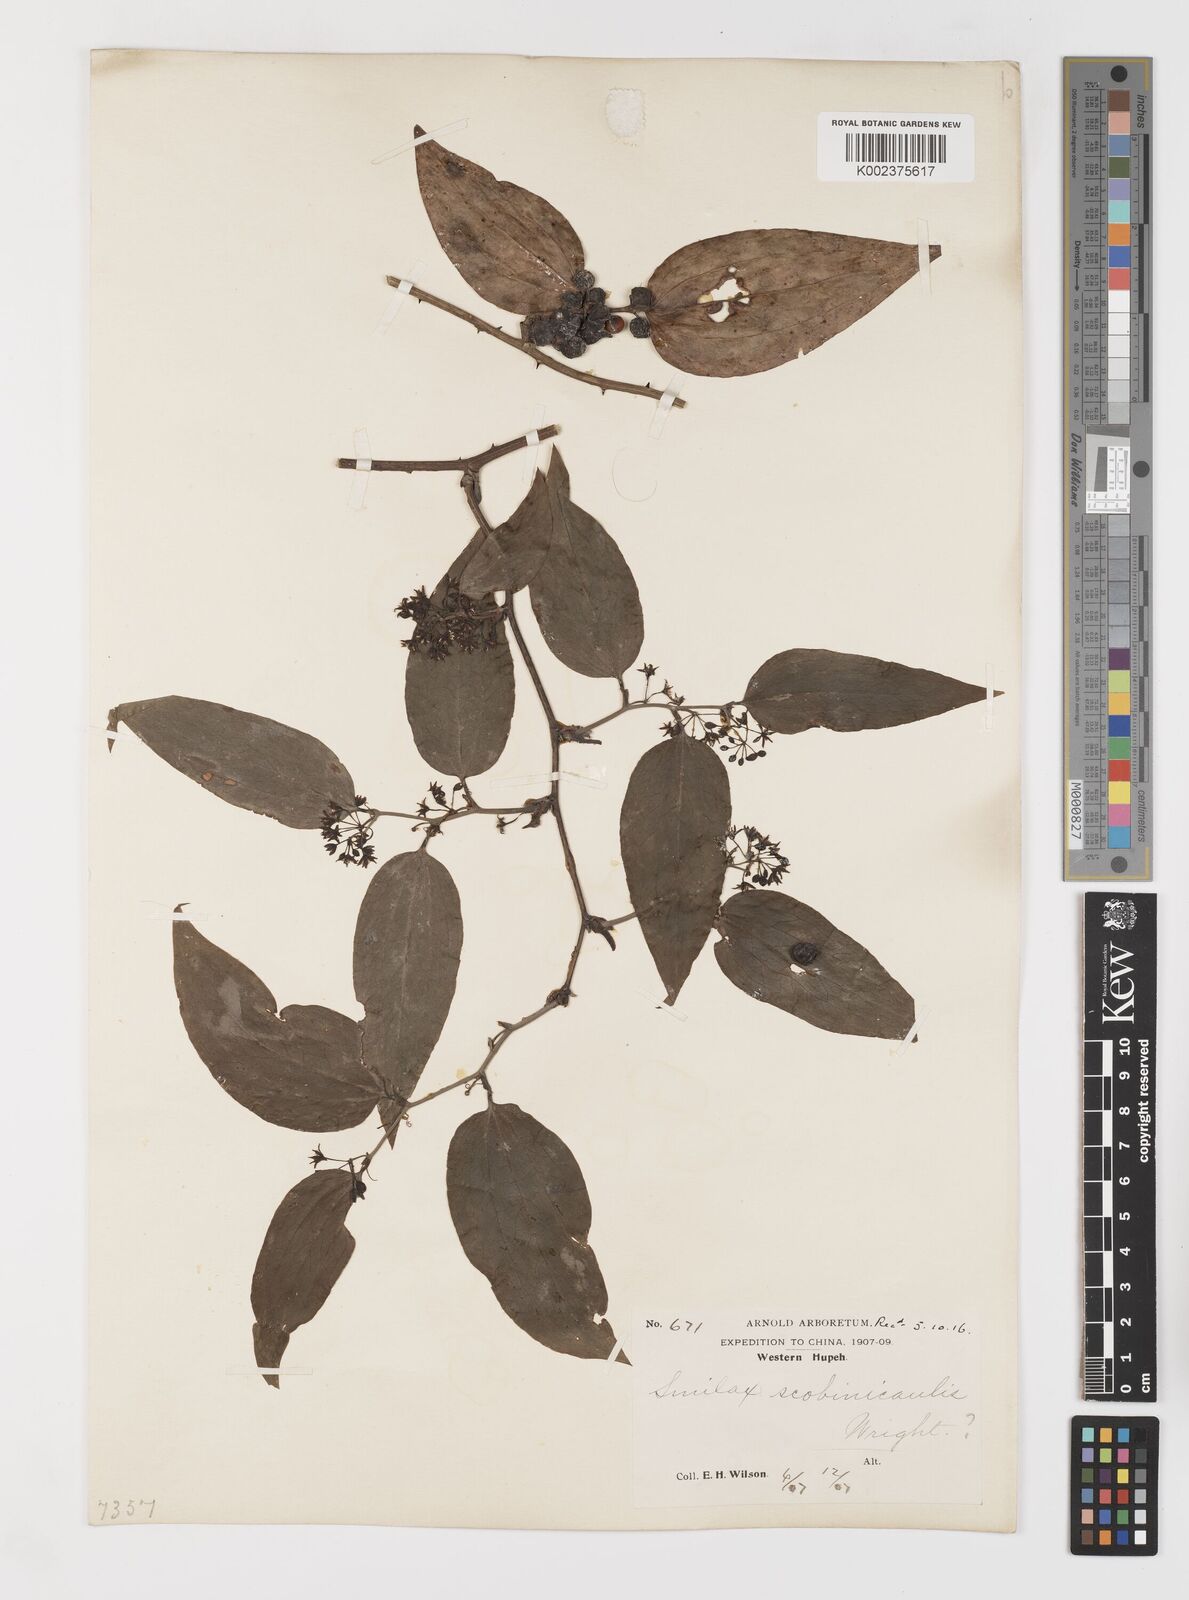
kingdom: Plantae
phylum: Tracheophyta
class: Liliopsida
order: Liliales
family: Smilacaceae
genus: Smilax
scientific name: Smilax scobinicaulis
